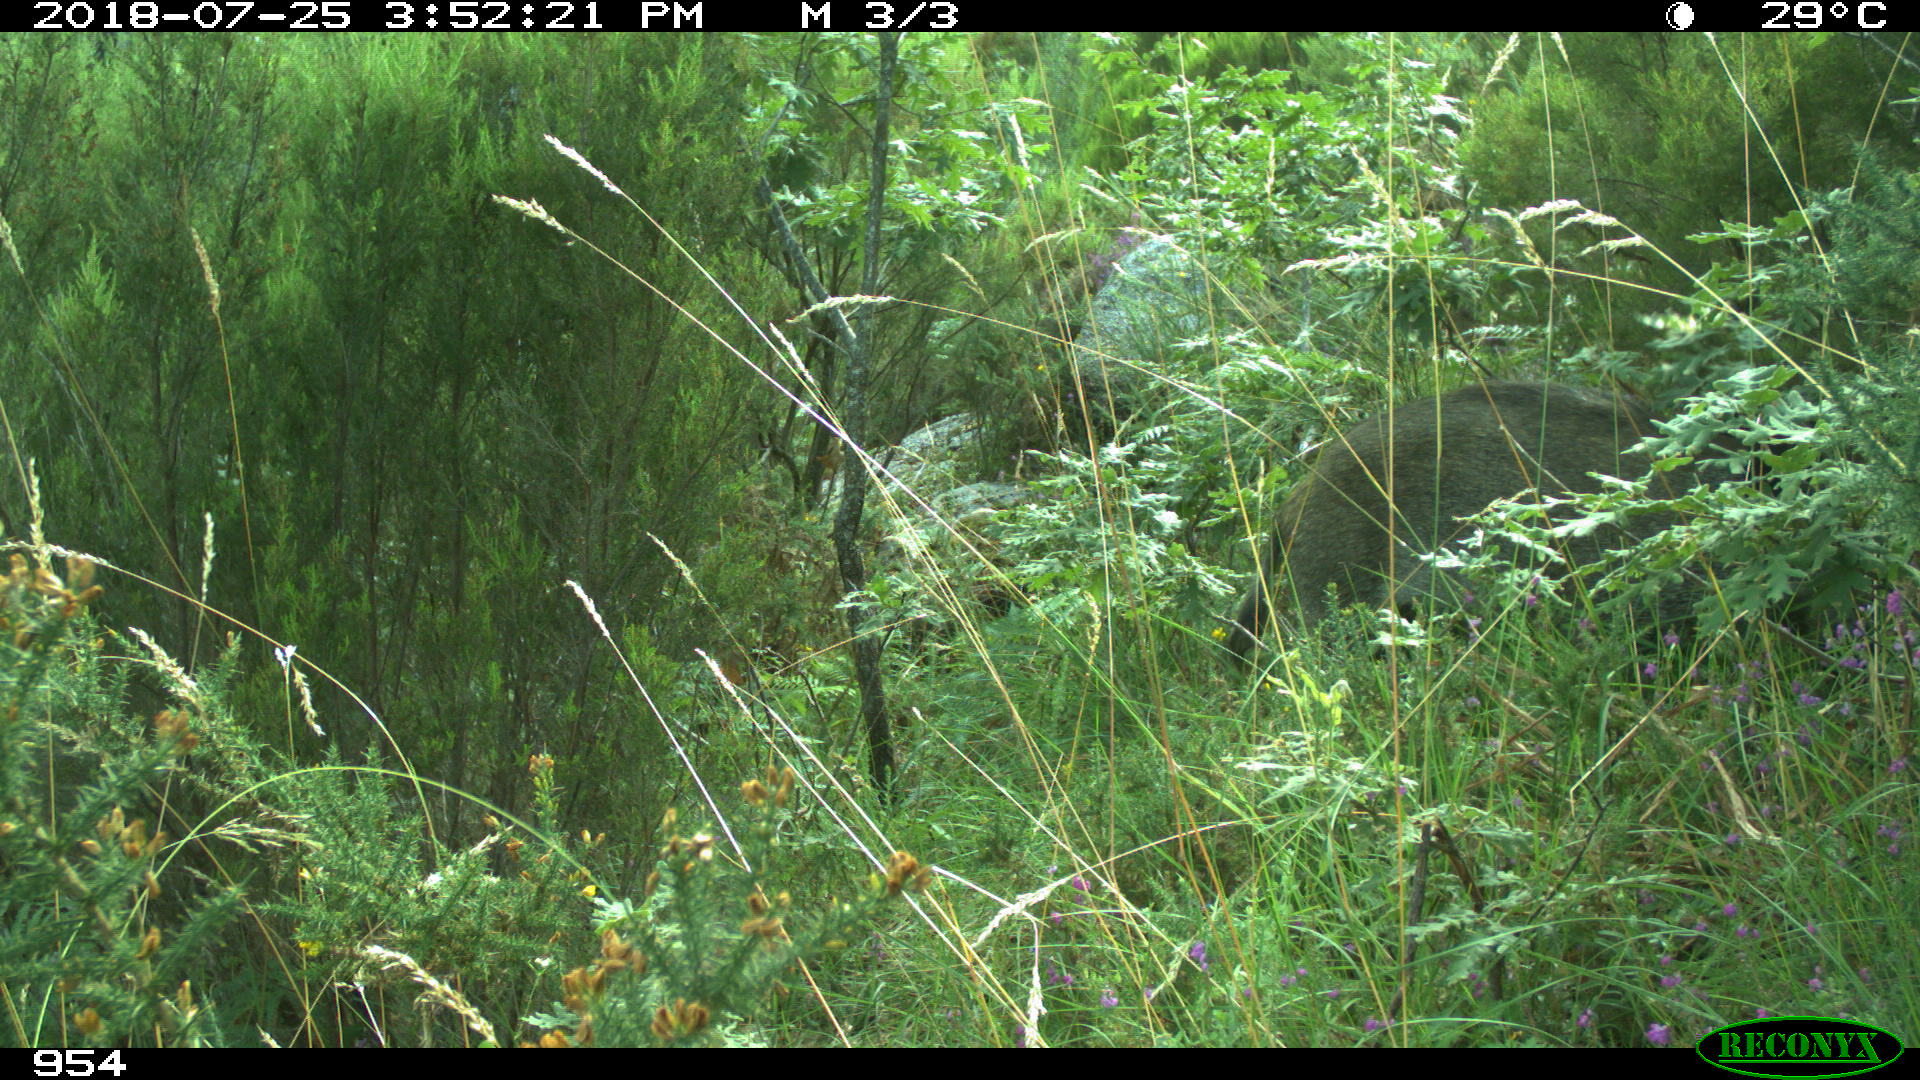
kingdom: Animalia
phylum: Chordata
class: Mammalia
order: Artiodactyla
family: Suidae
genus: Sus
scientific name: Sus scrofa
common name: Wild boar
